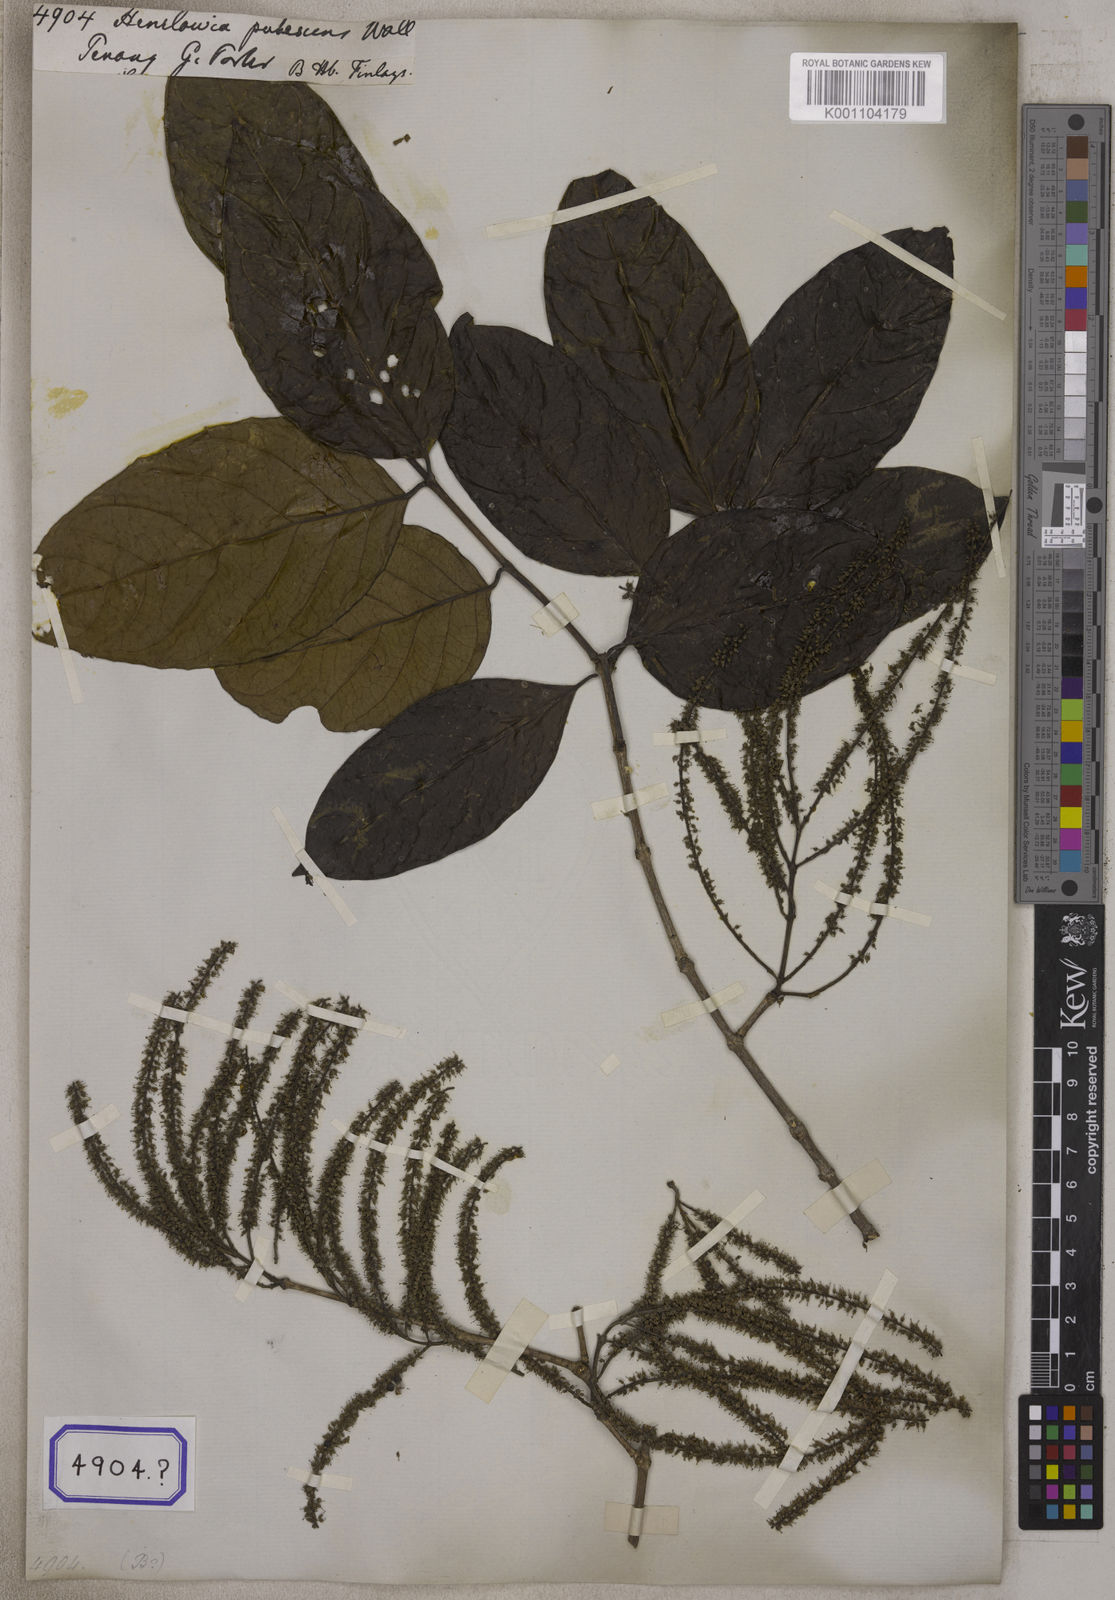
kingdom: Plantae
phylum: Tracheophyta
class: Magnoliopsida
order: Myrtales
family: Crypteroniaceae
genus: Crypteronia
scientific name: Crypteronia paniculata
